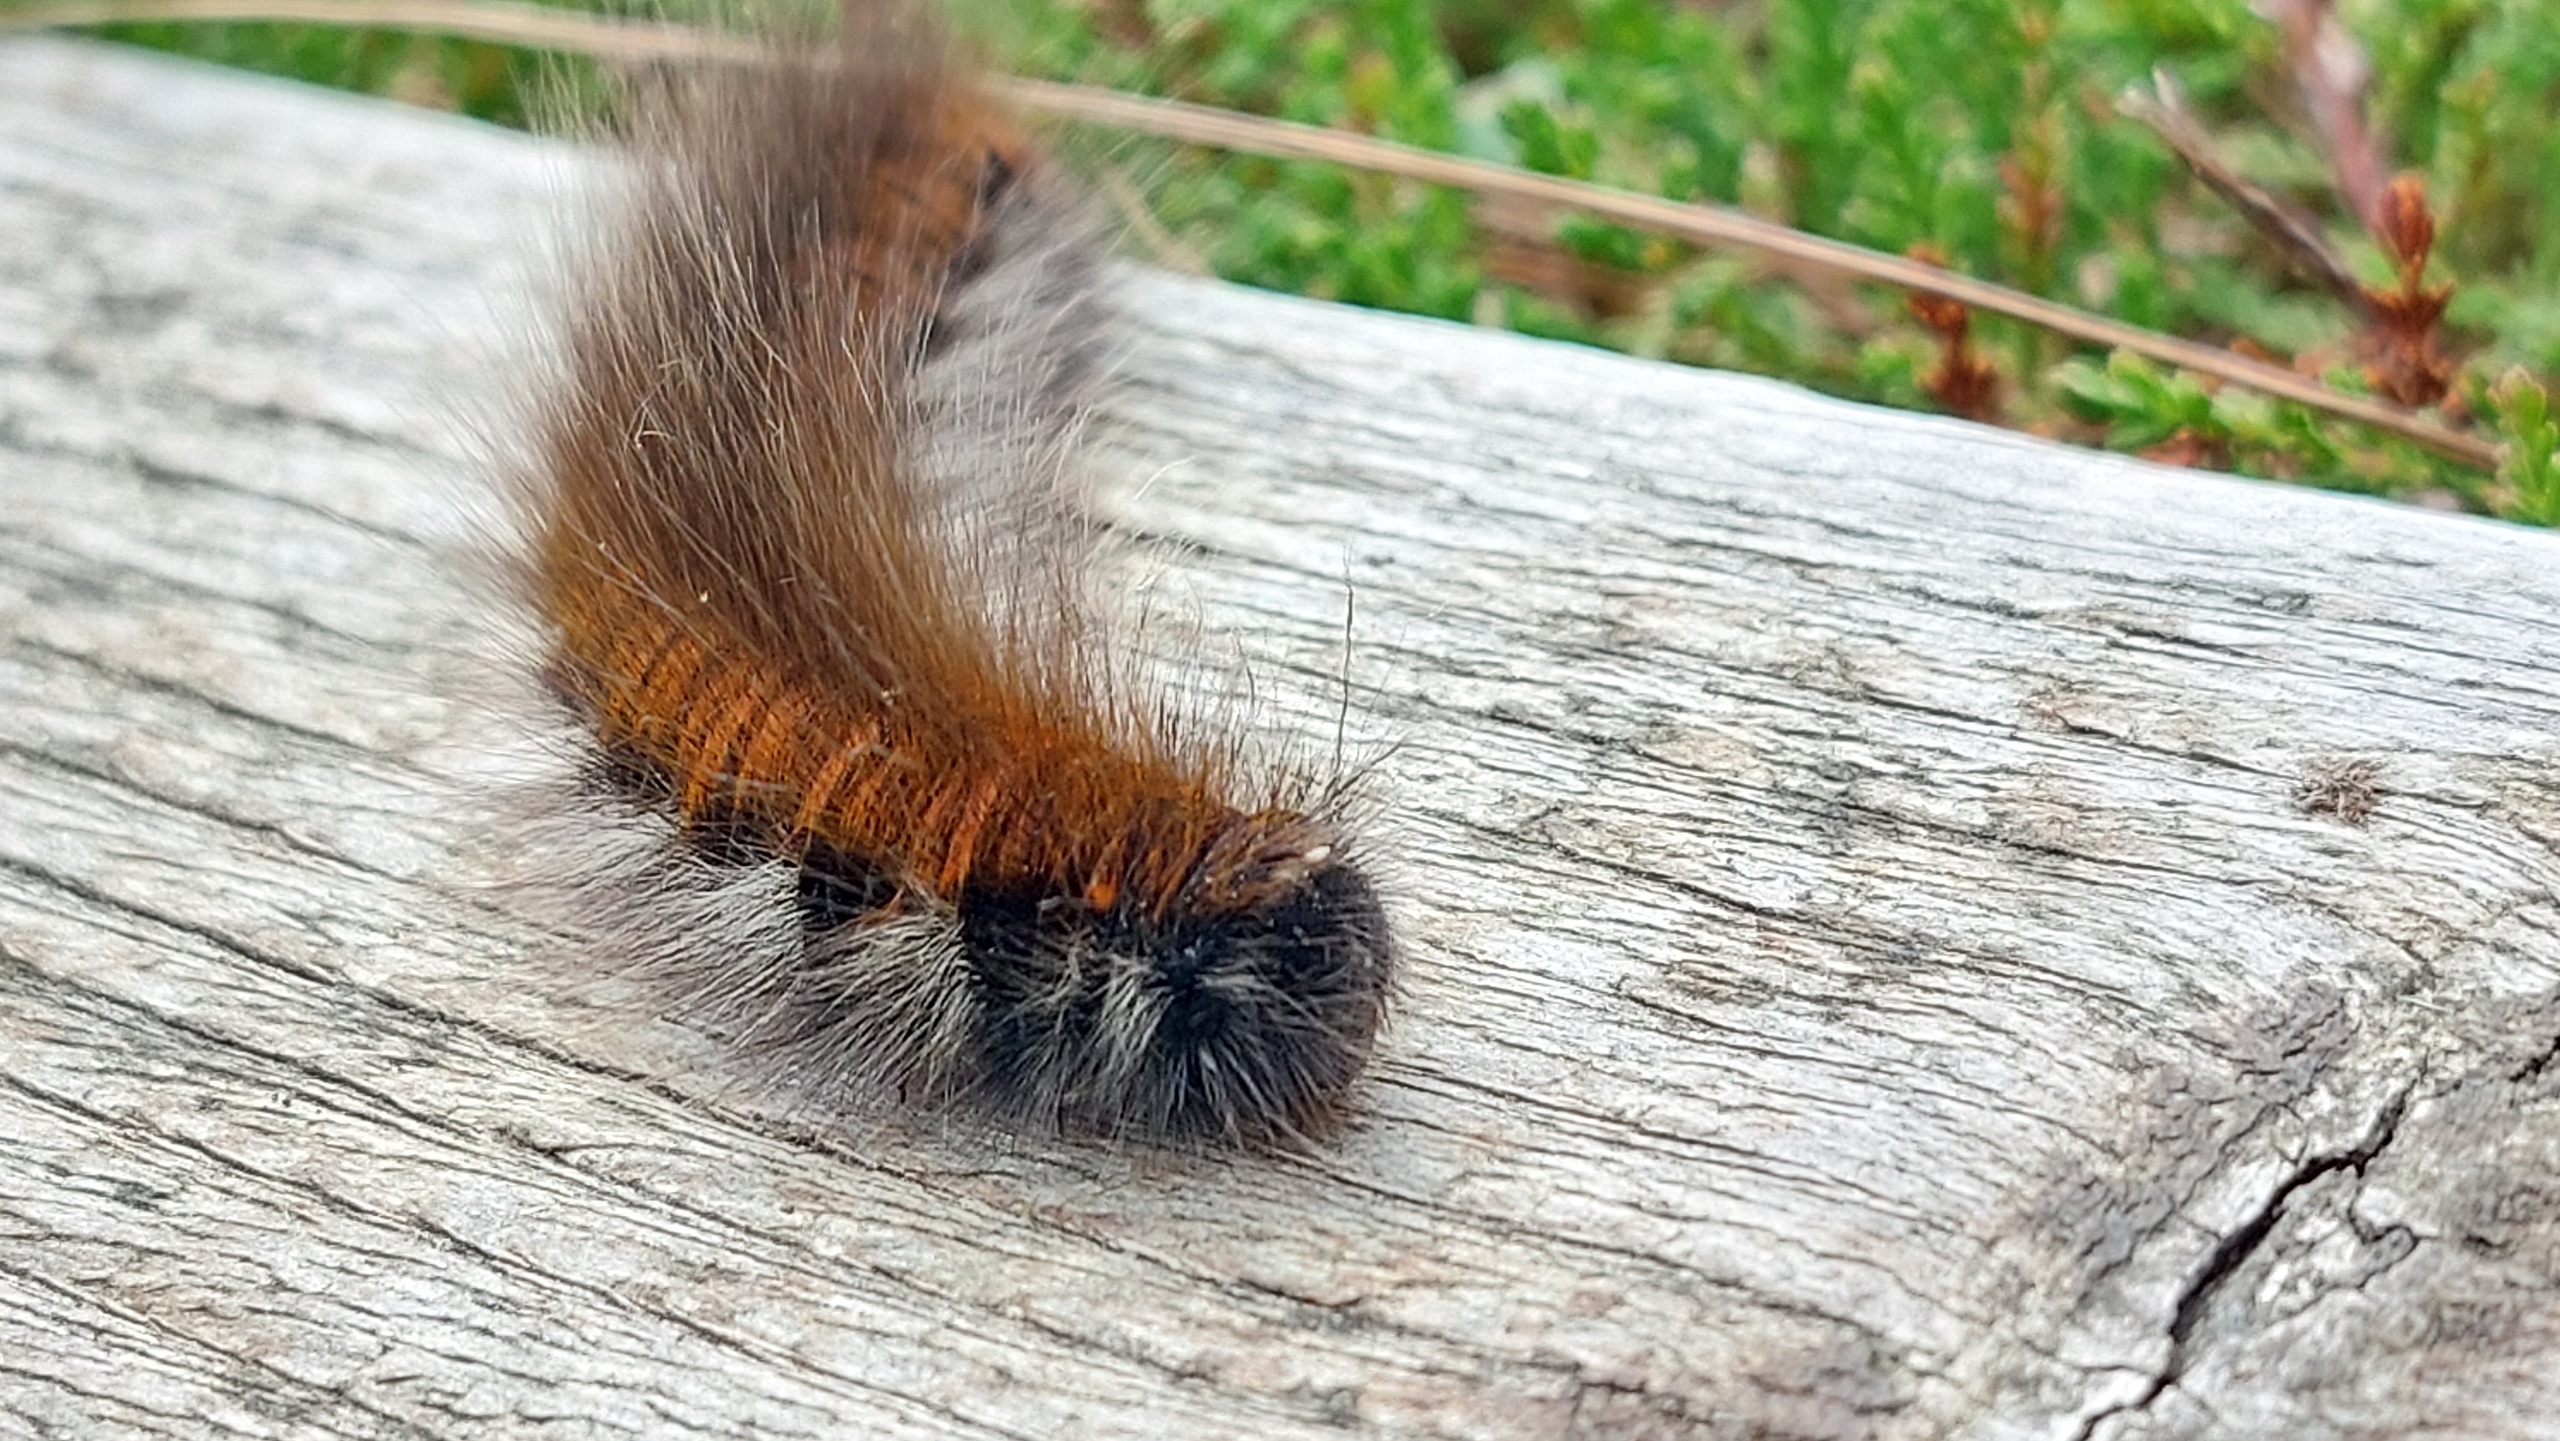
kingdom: Animalia
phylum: Arthropoda
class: Insecta
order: Lepidoptera
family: Lasiocampidae
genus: Macrothylacia
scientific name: Macrothylacia rubi
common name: Brombærspinder
